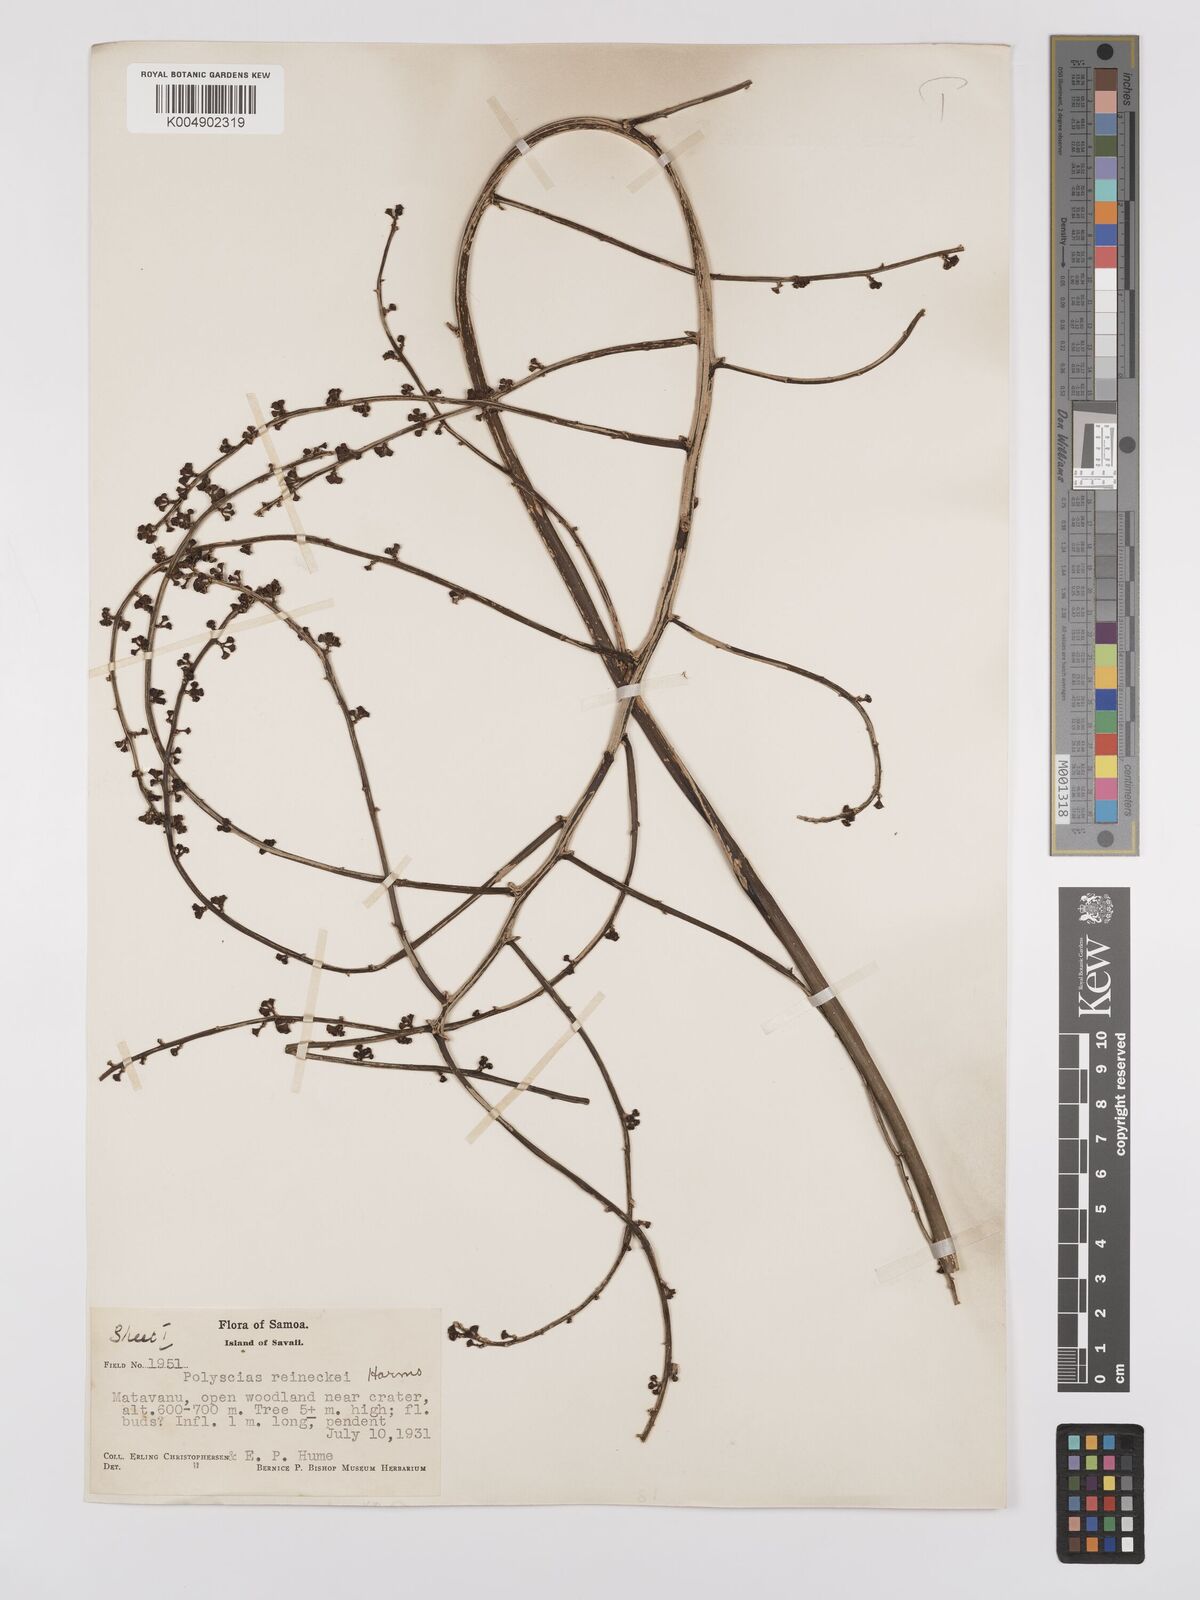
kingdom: Plantae
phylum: Tracheophyta
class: Magnoliopsida
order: Apiales
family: Araliaceae
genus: Polyscias
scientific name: Polyscias reineckei
